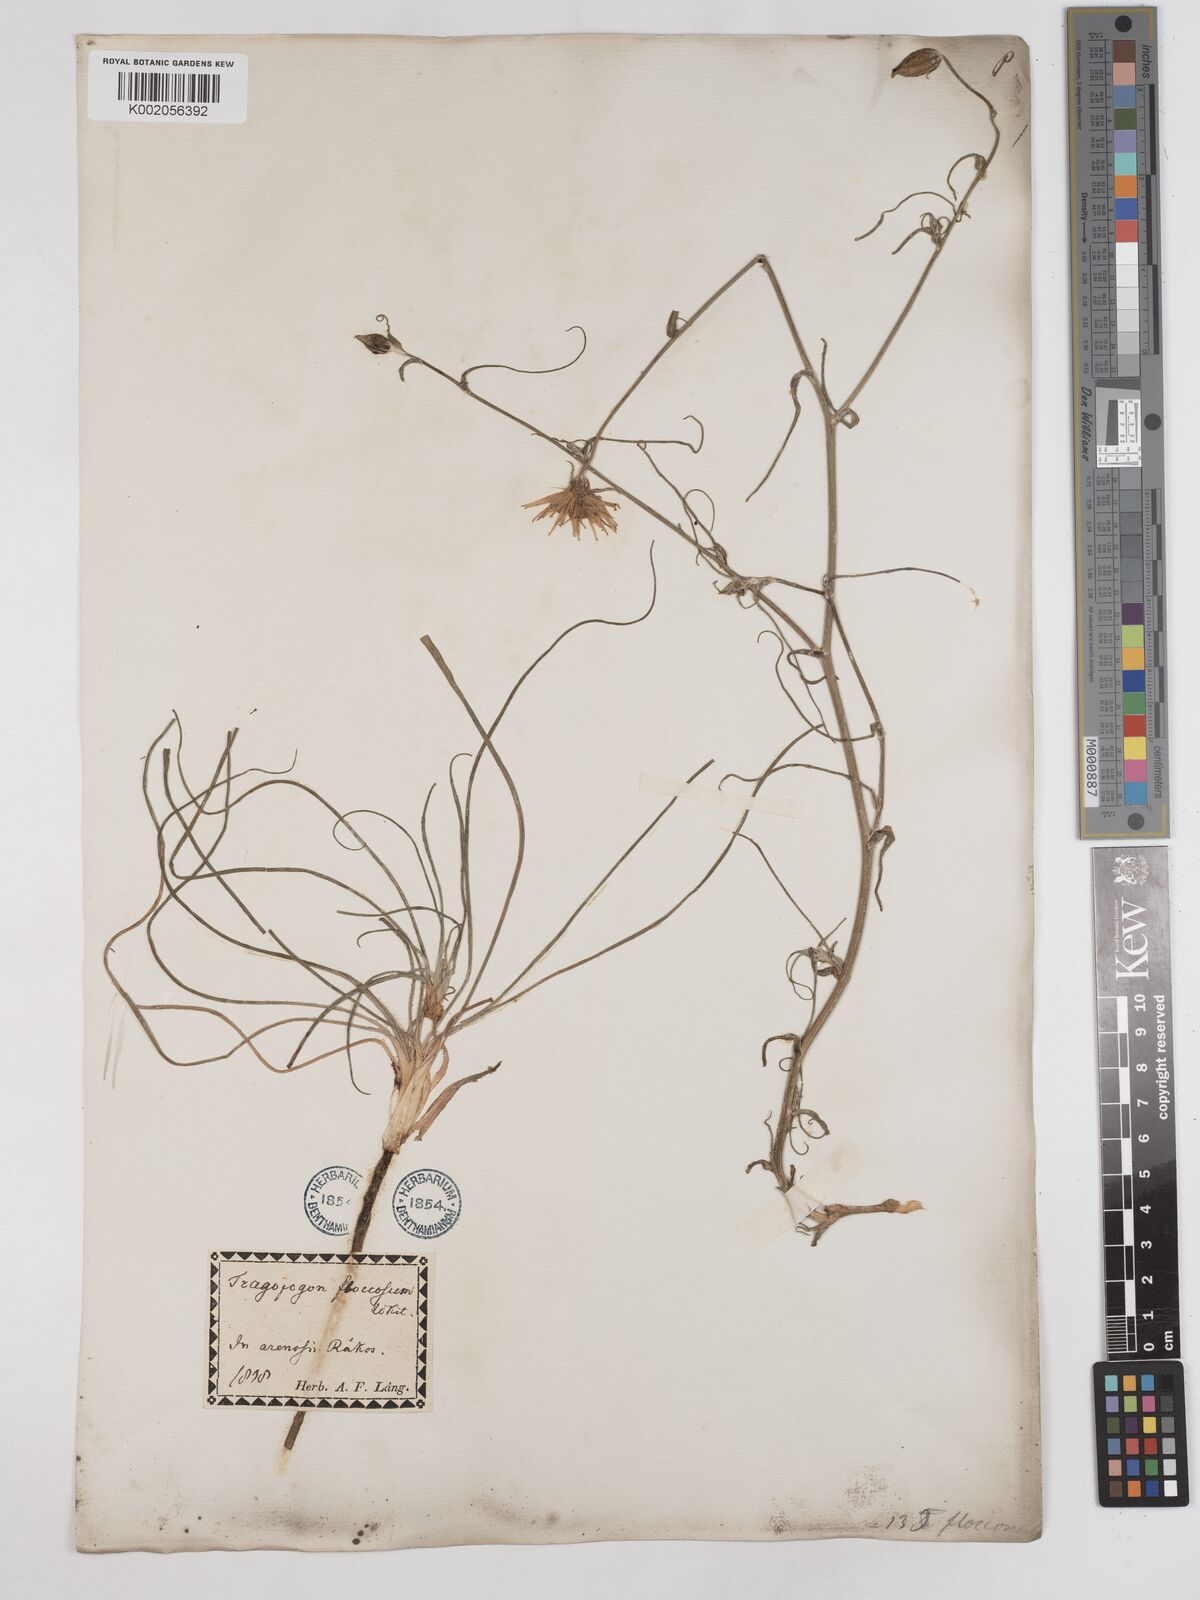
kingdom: Plantae
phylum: Tracheophyta
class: Magnoliopsida
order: Asterales
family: Asteraceae
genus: Tragopogon
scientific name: Tragopogon floccosus
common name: Woolly goatsbeard
